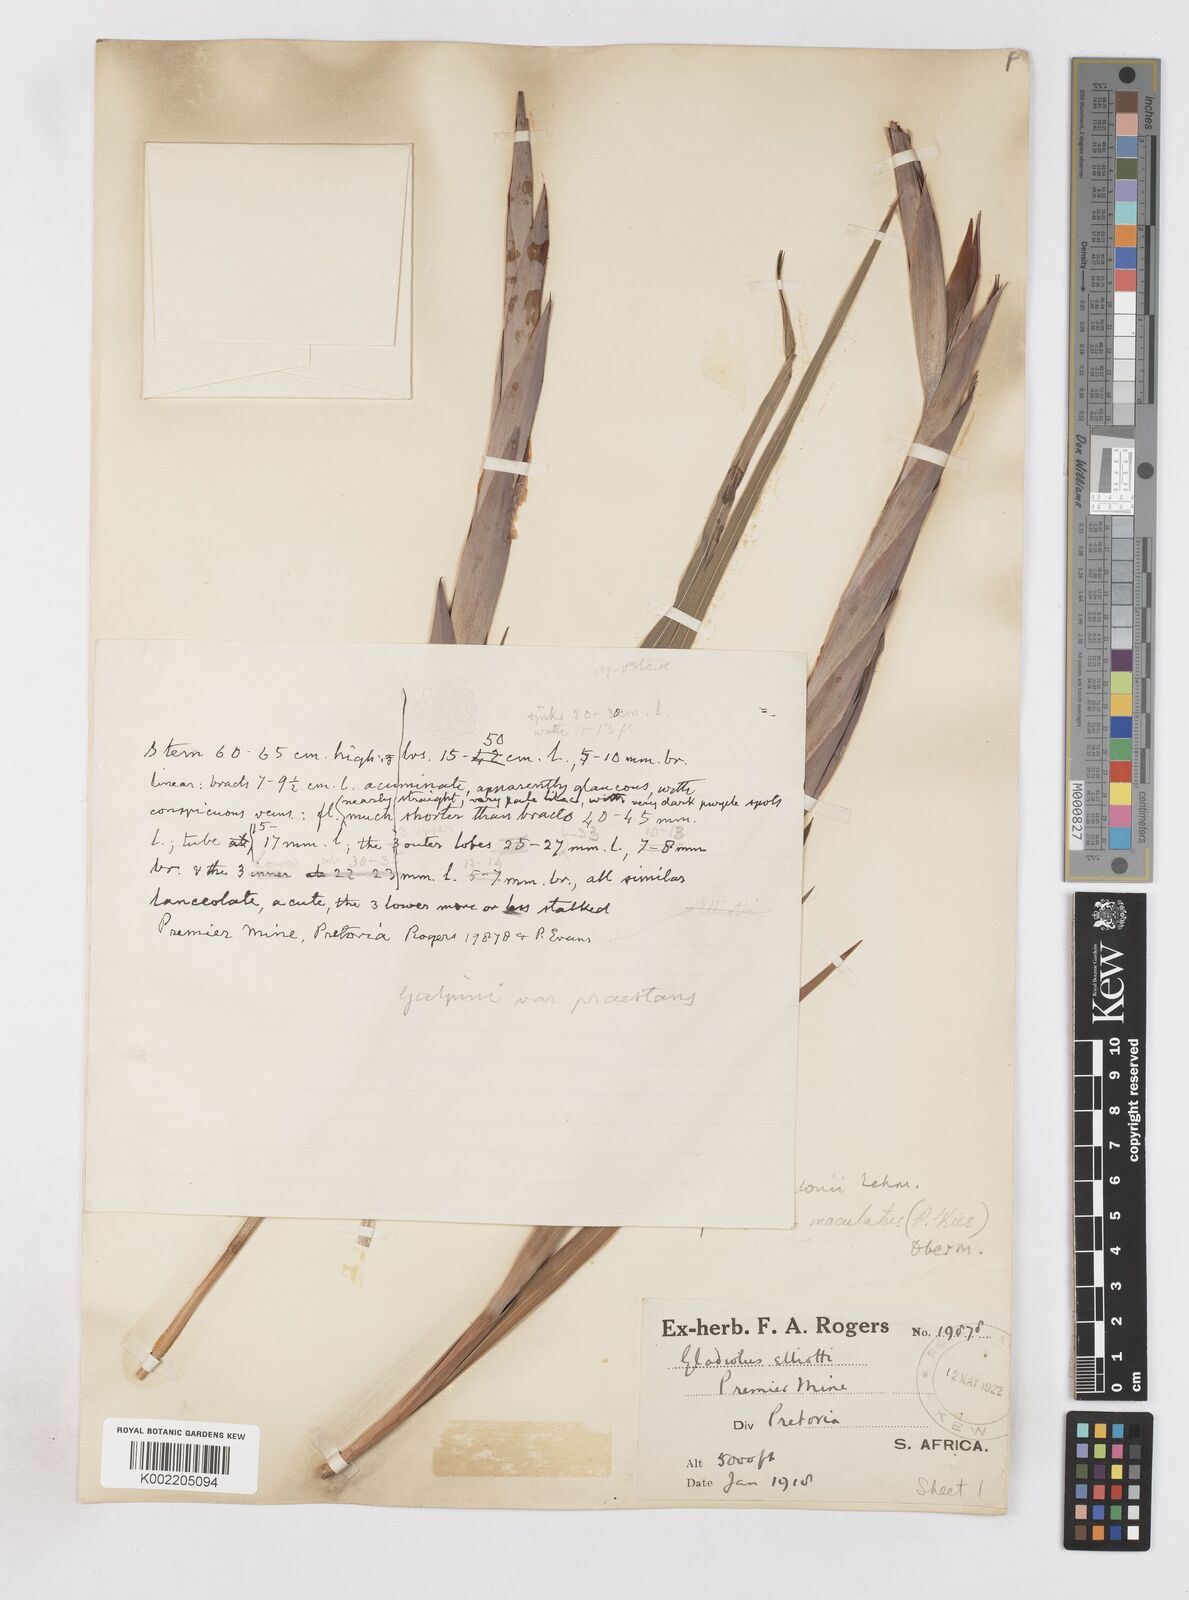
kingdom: Plantae
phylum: Tracheophyta
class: Liliopsida
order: Asparagales
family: Iridaceae
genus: Gladiolus
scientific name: Gladiolus vinosomaculatus
